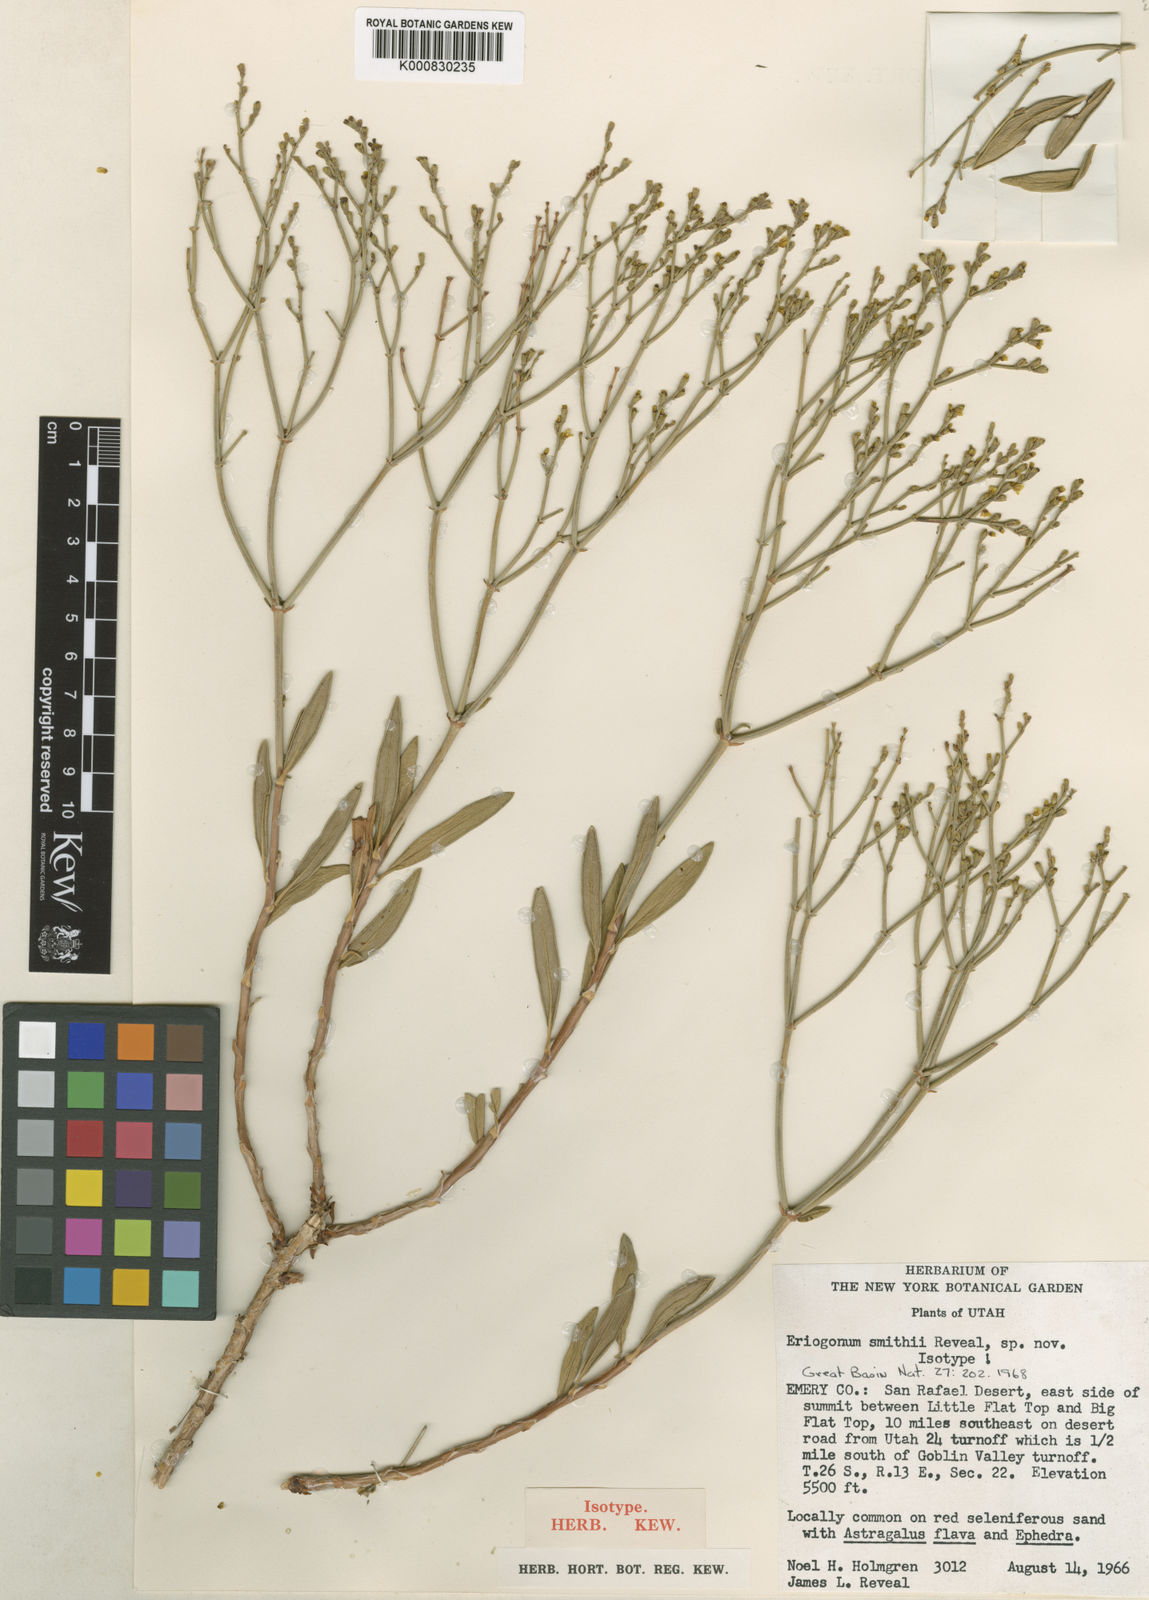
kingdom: Plantae
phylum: Tracheophyta
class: Magnoliopsida
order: Caryophyllales
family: Polygonaceae
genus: Eriogonum
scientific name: Eriogonum smithii
